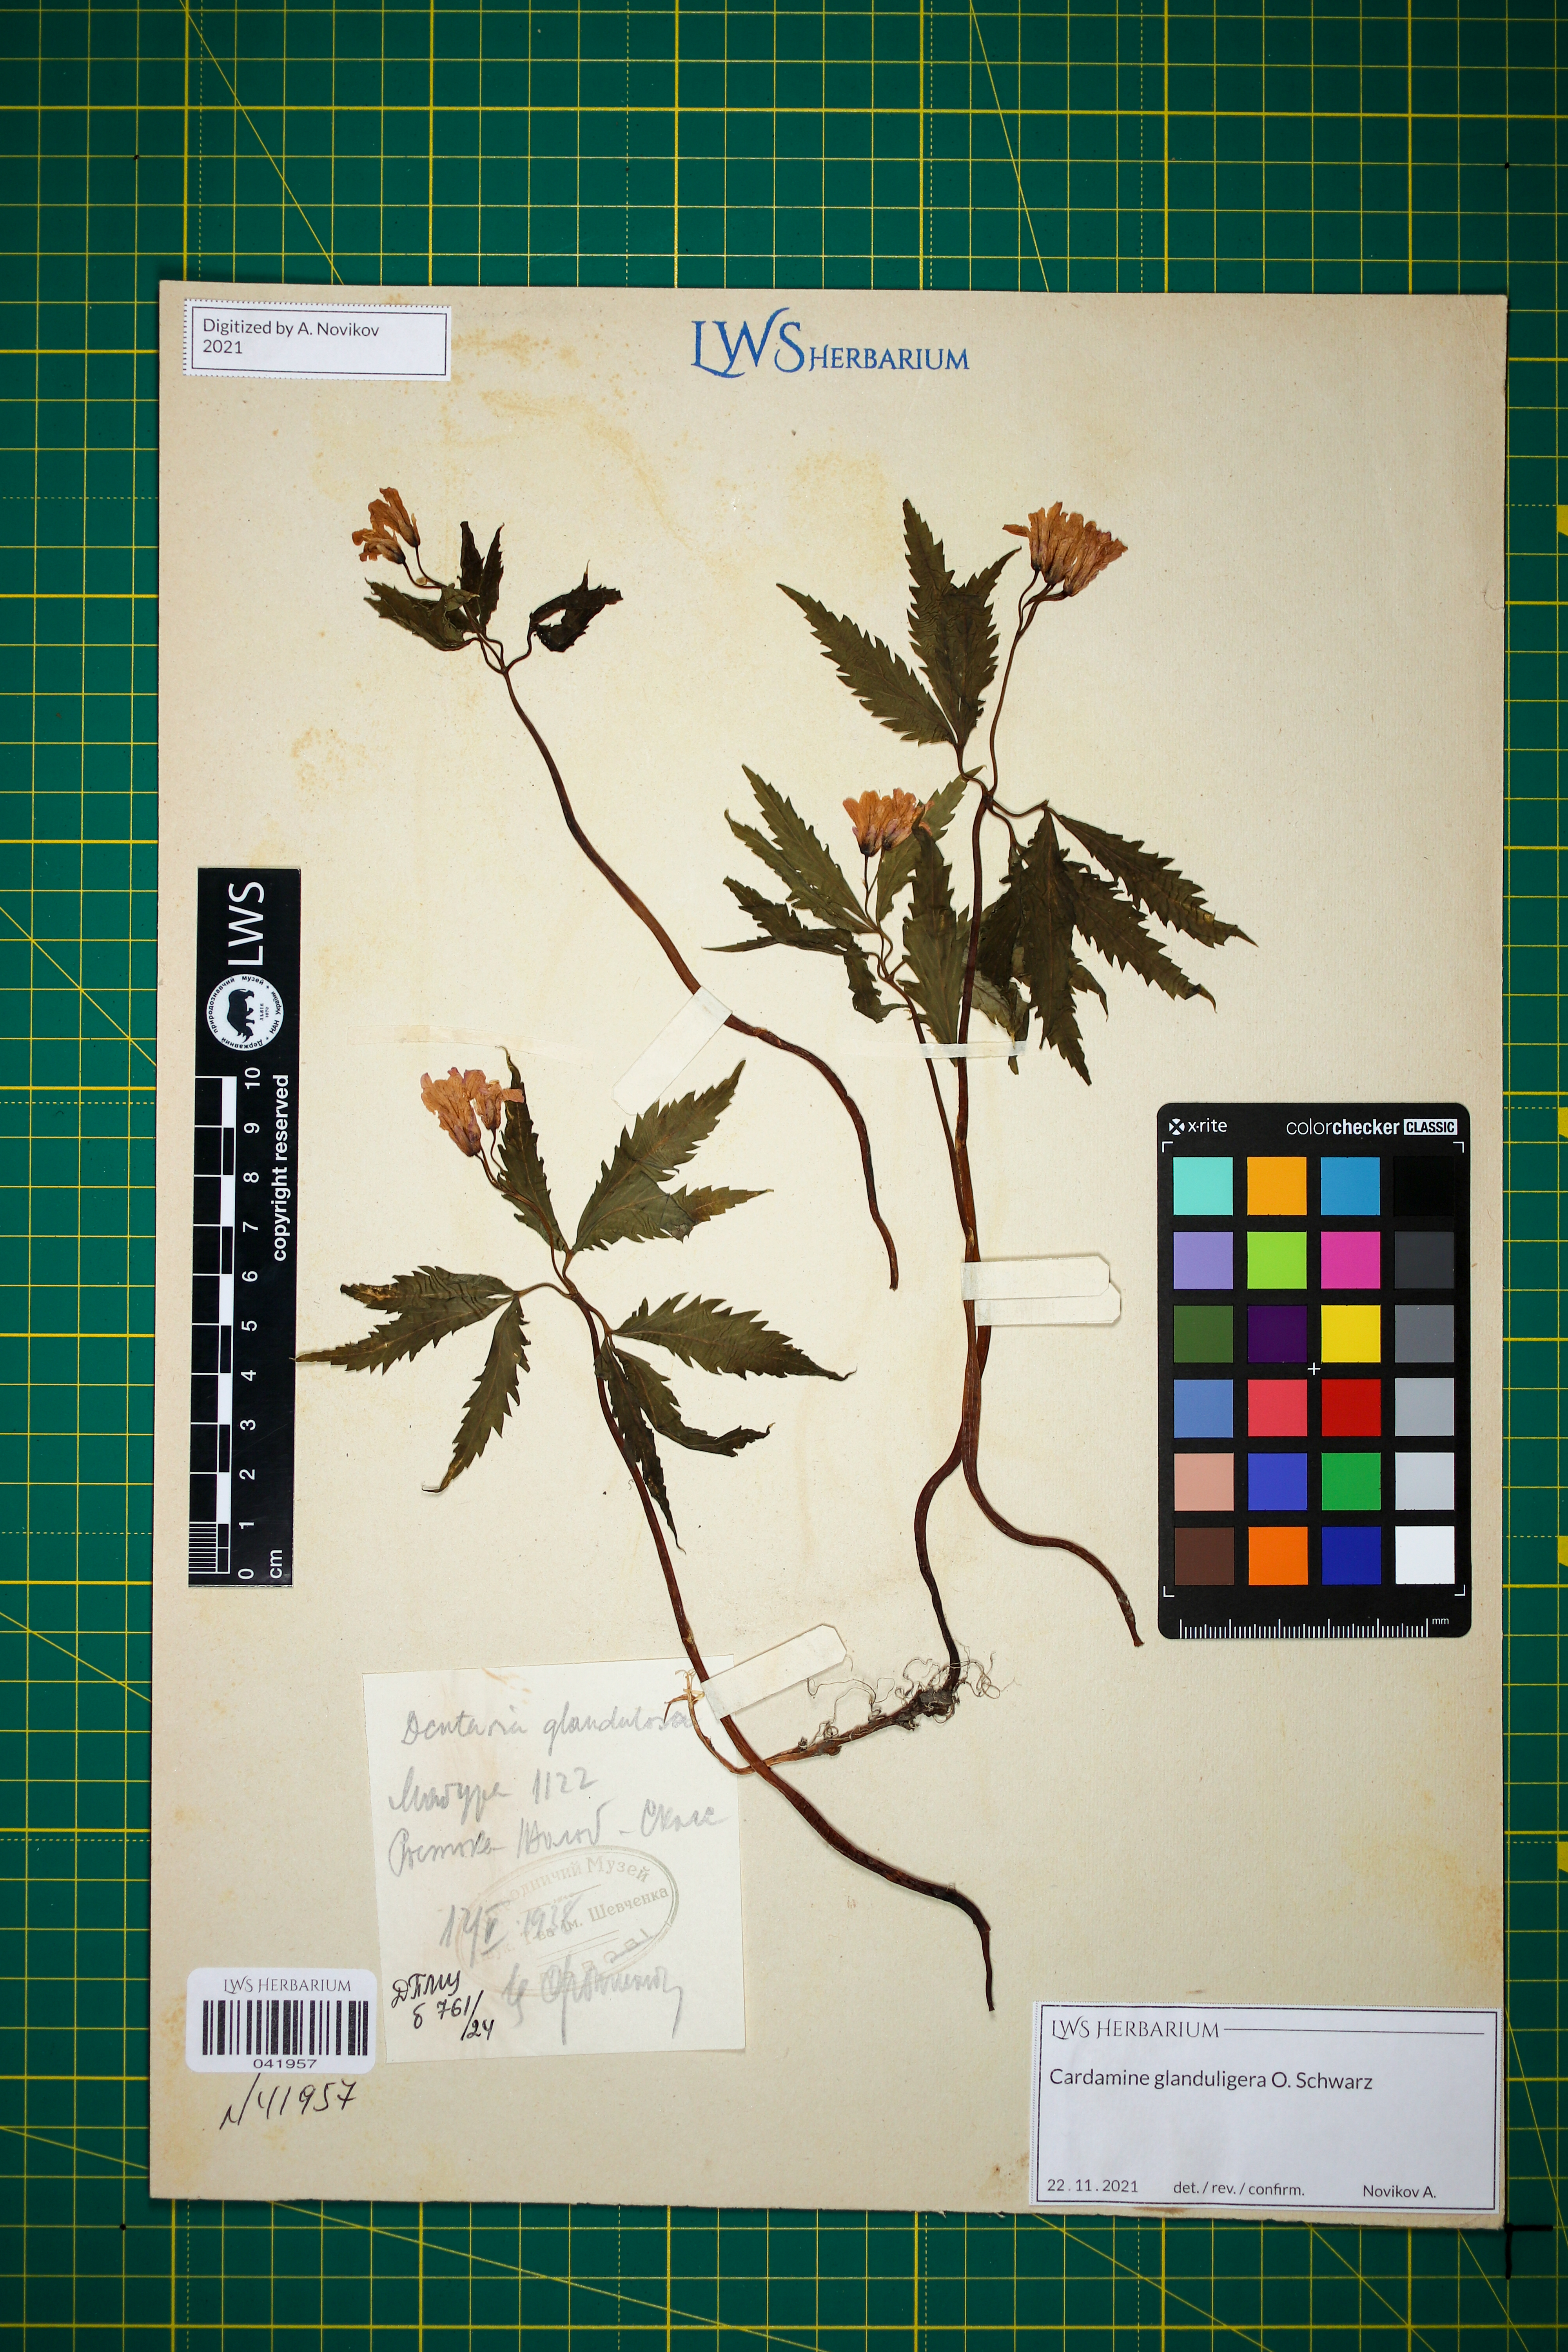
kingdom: Plantae
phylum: Tracheophyta
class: Magnoliopsida
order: Brassicales
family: Brassicaceae
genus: Cardamine
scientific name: Cardamine glanduligera
